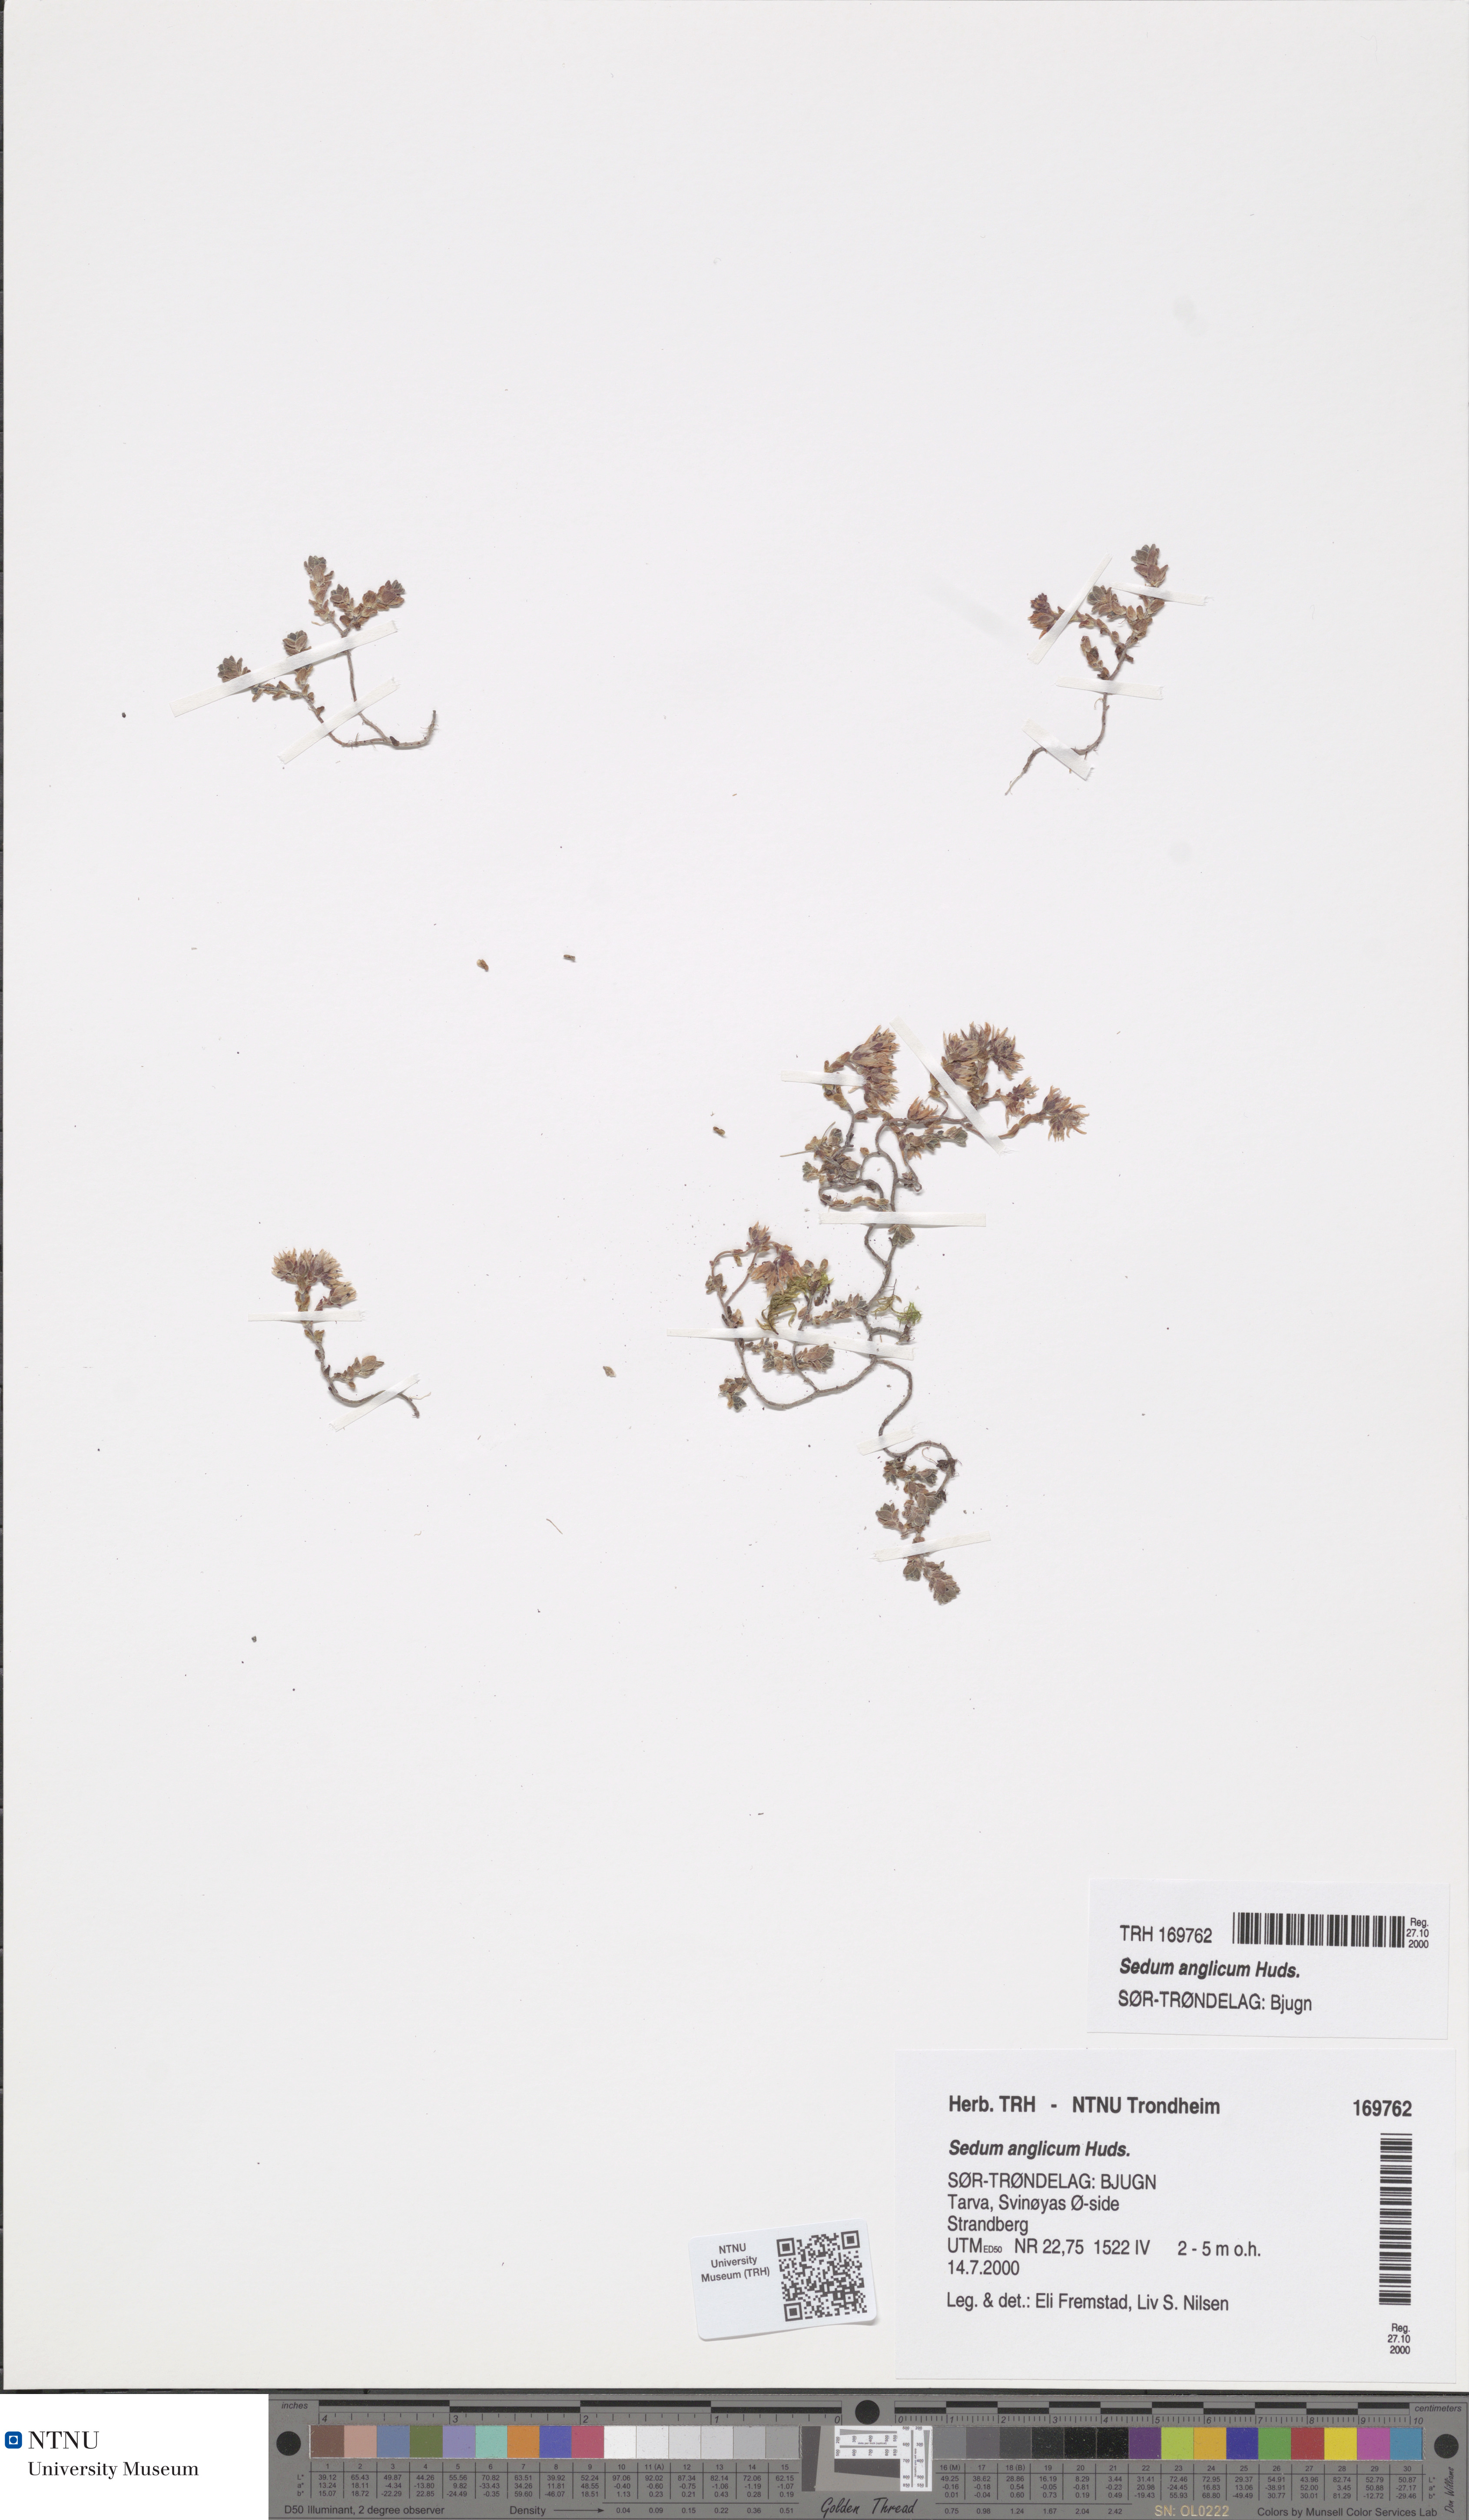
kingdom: Plantae
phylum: Tracheophyta
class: Magnoliopsida
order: Saxifragales
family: Crassulaceae
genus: Sedum
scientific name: Sedum anglicum
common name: English stonecrop
